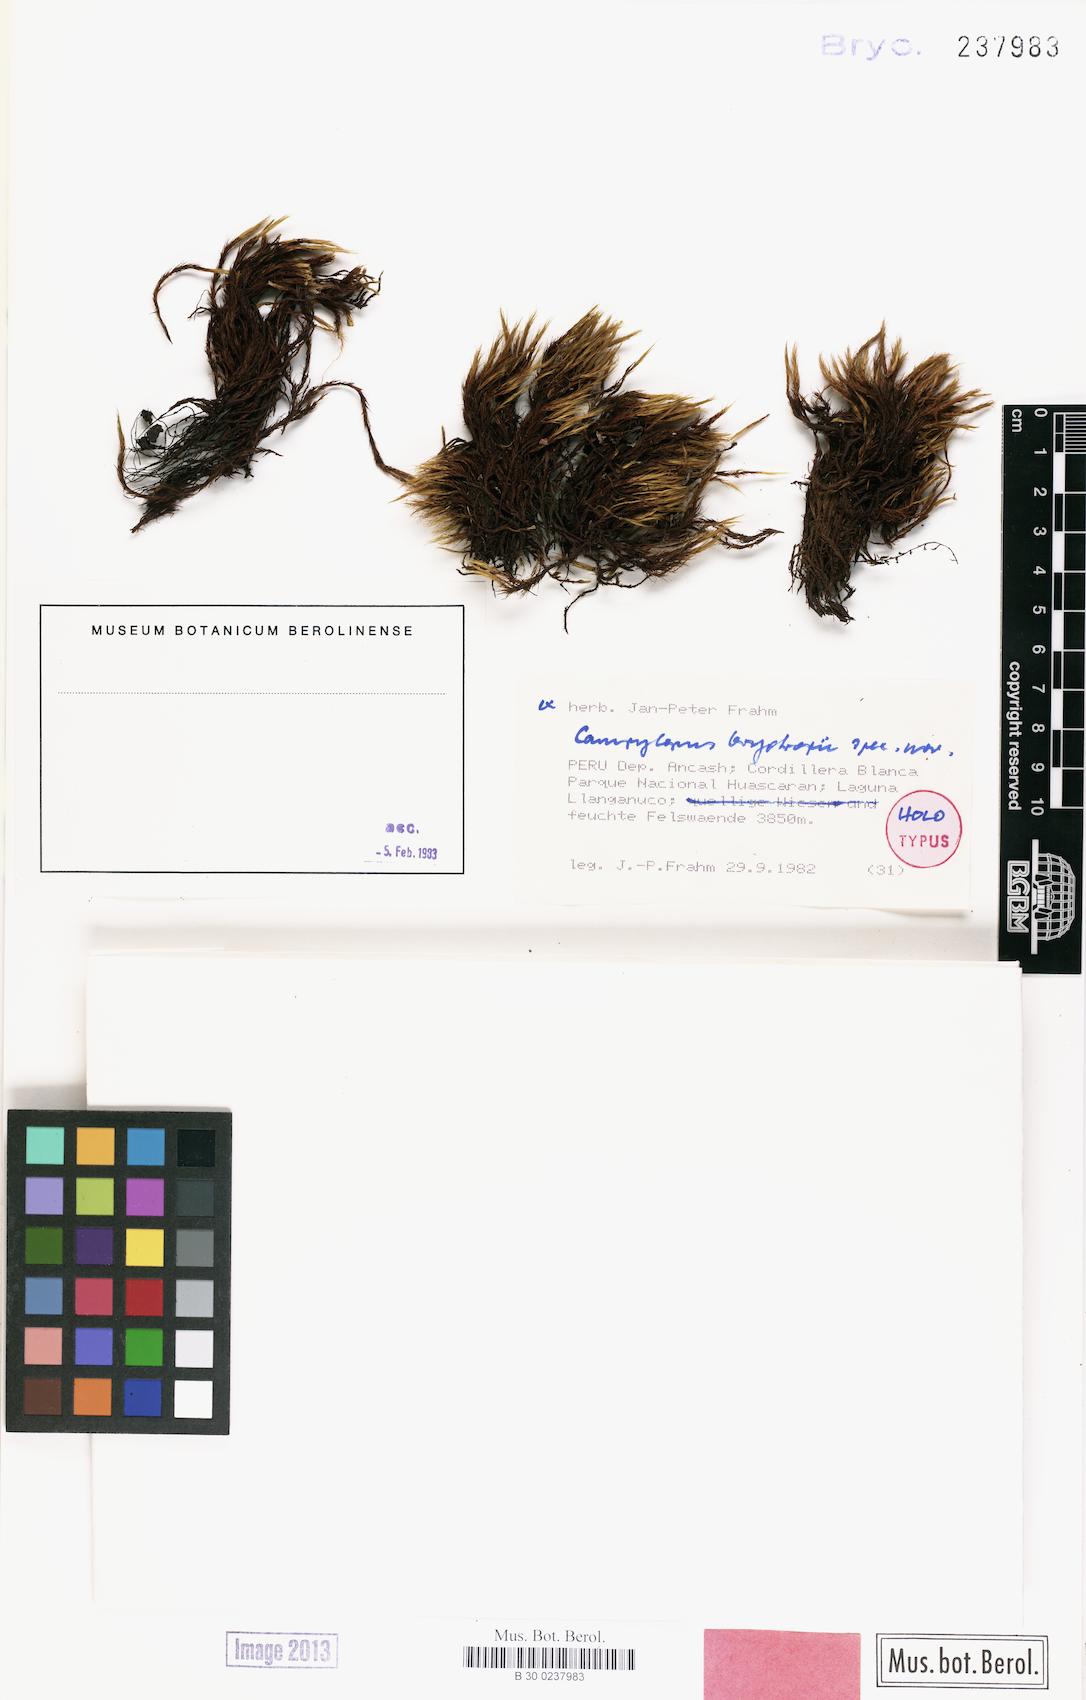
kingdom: Plantae
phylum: Bryophyta
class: Bryopsida
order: Dicranales
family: Leucobryaceae
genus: Campylopus
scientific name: Campylopus bryotropii
